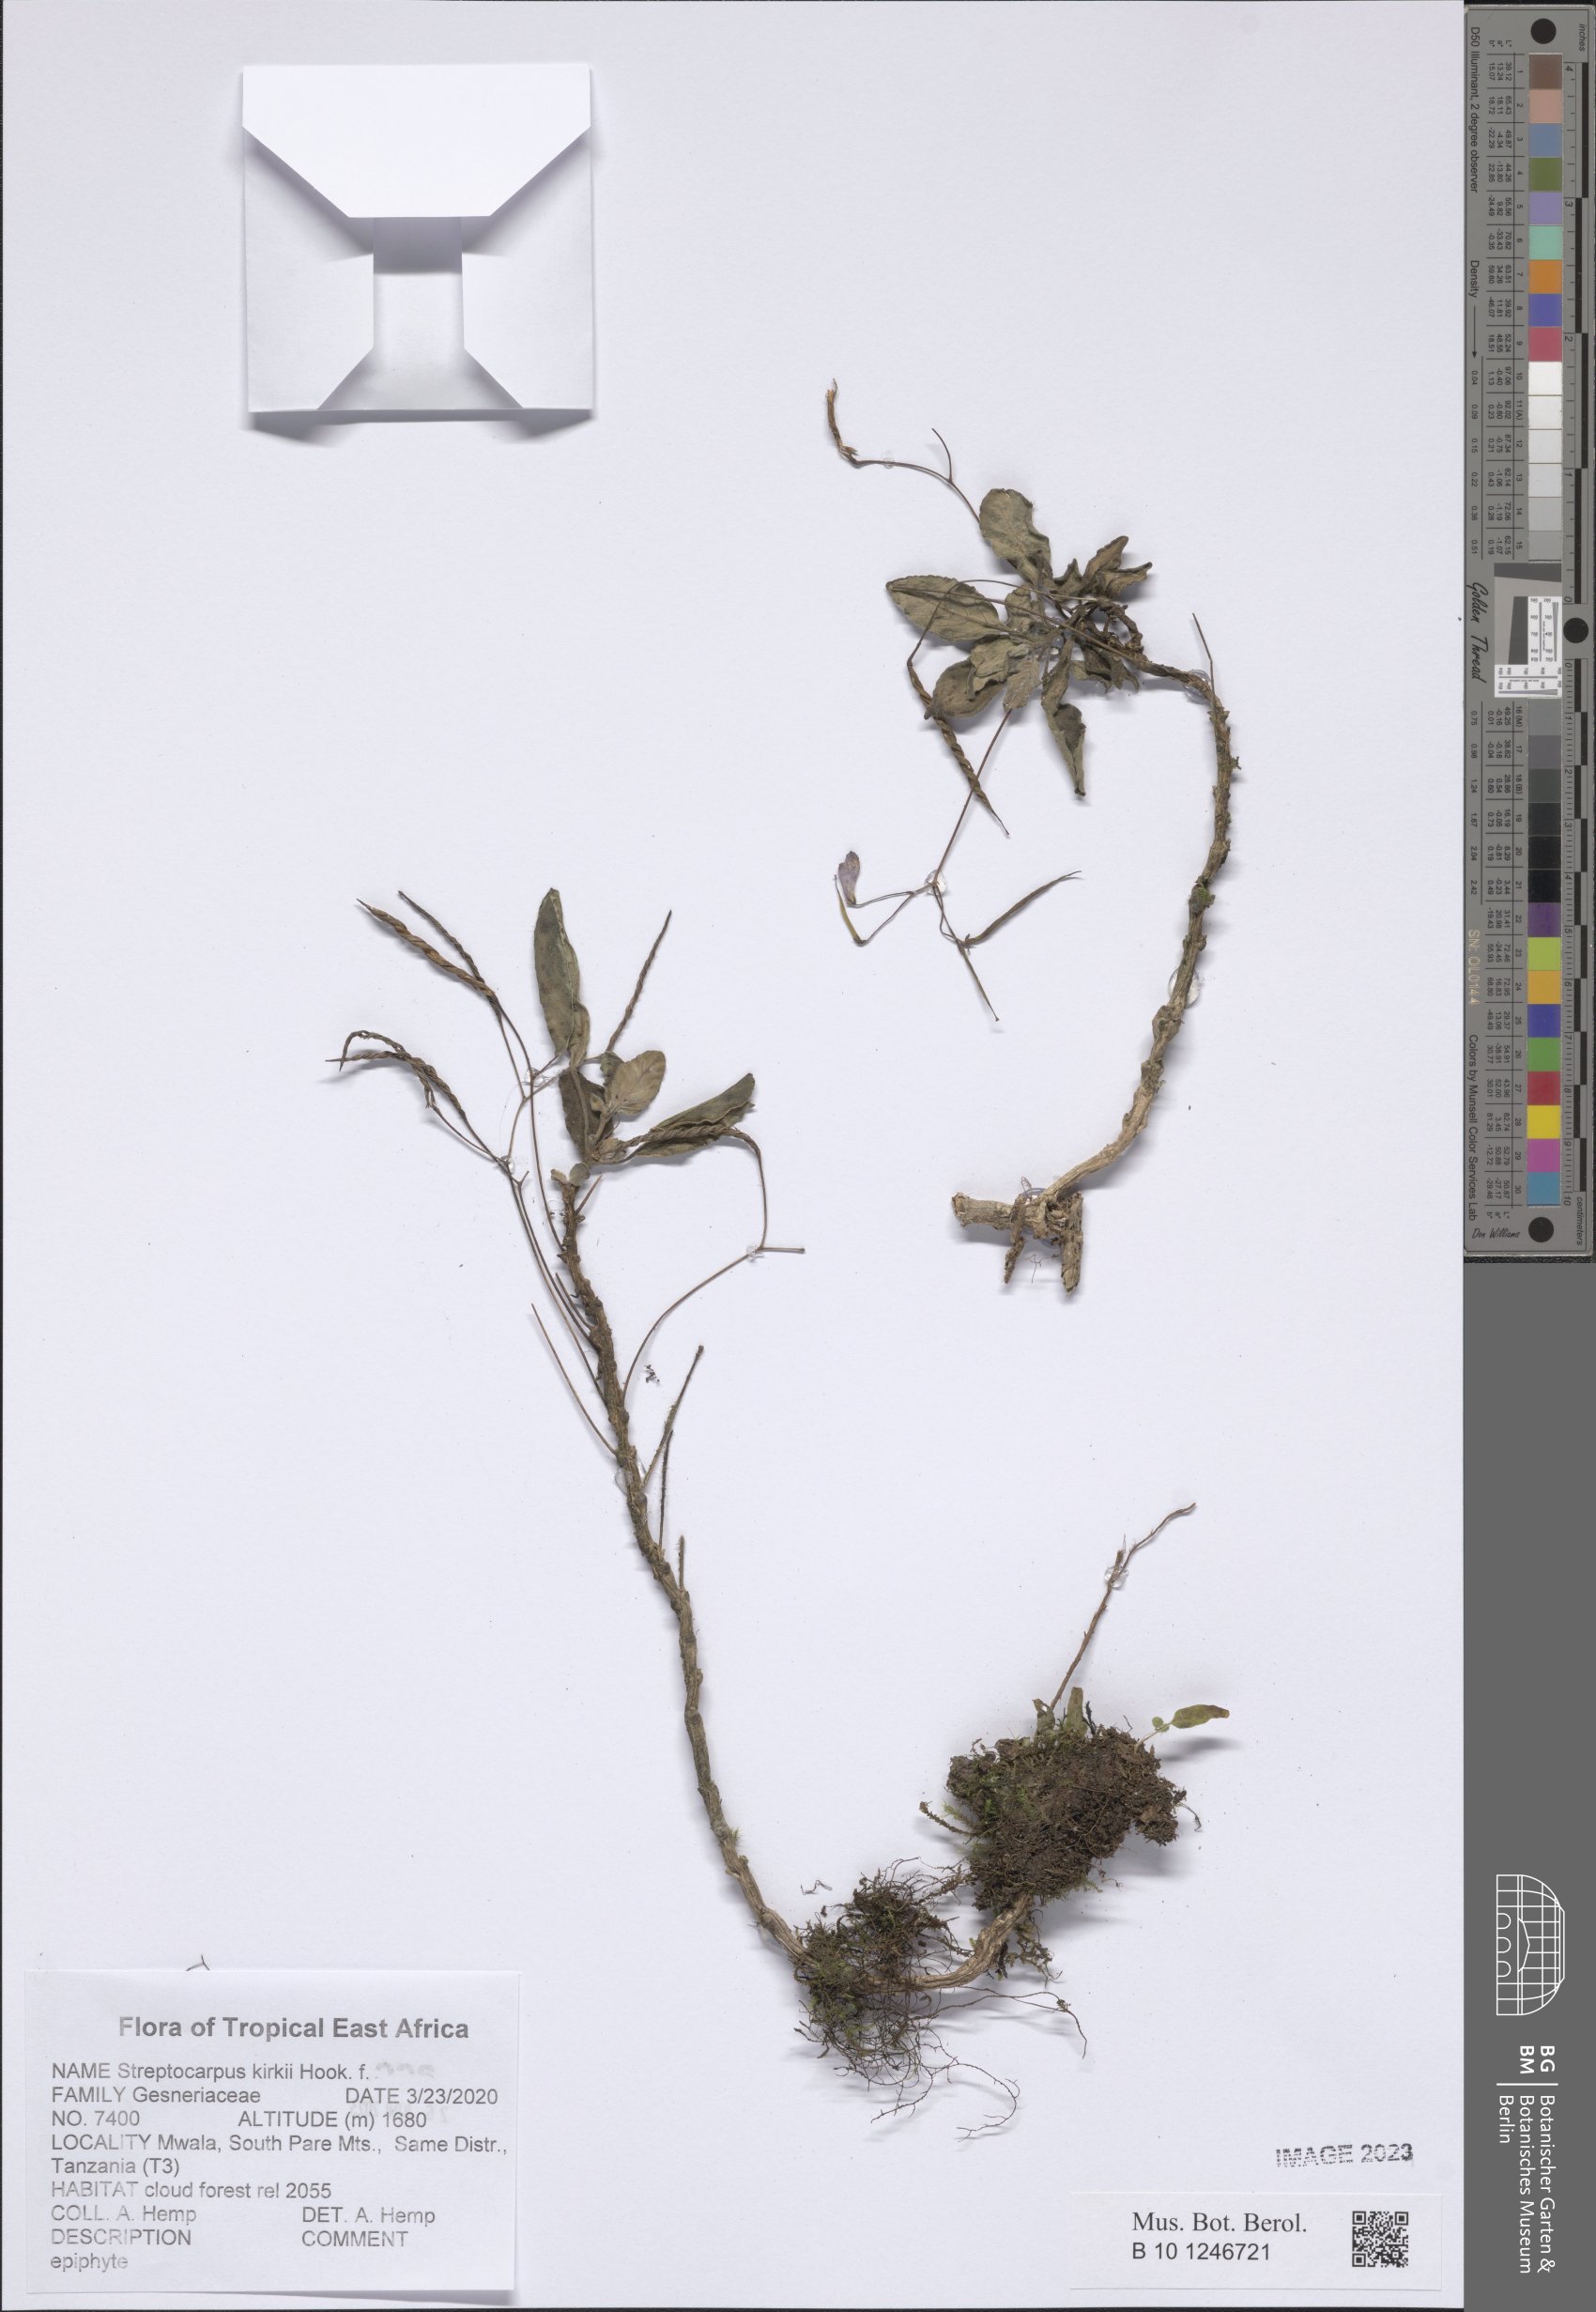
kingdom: Plantae
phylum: Tracheophyta
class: Magnoliopsida
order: Lamiales
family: Gesneriaceae
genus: Streptocarpus
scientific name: Streptocarpus kirkii
